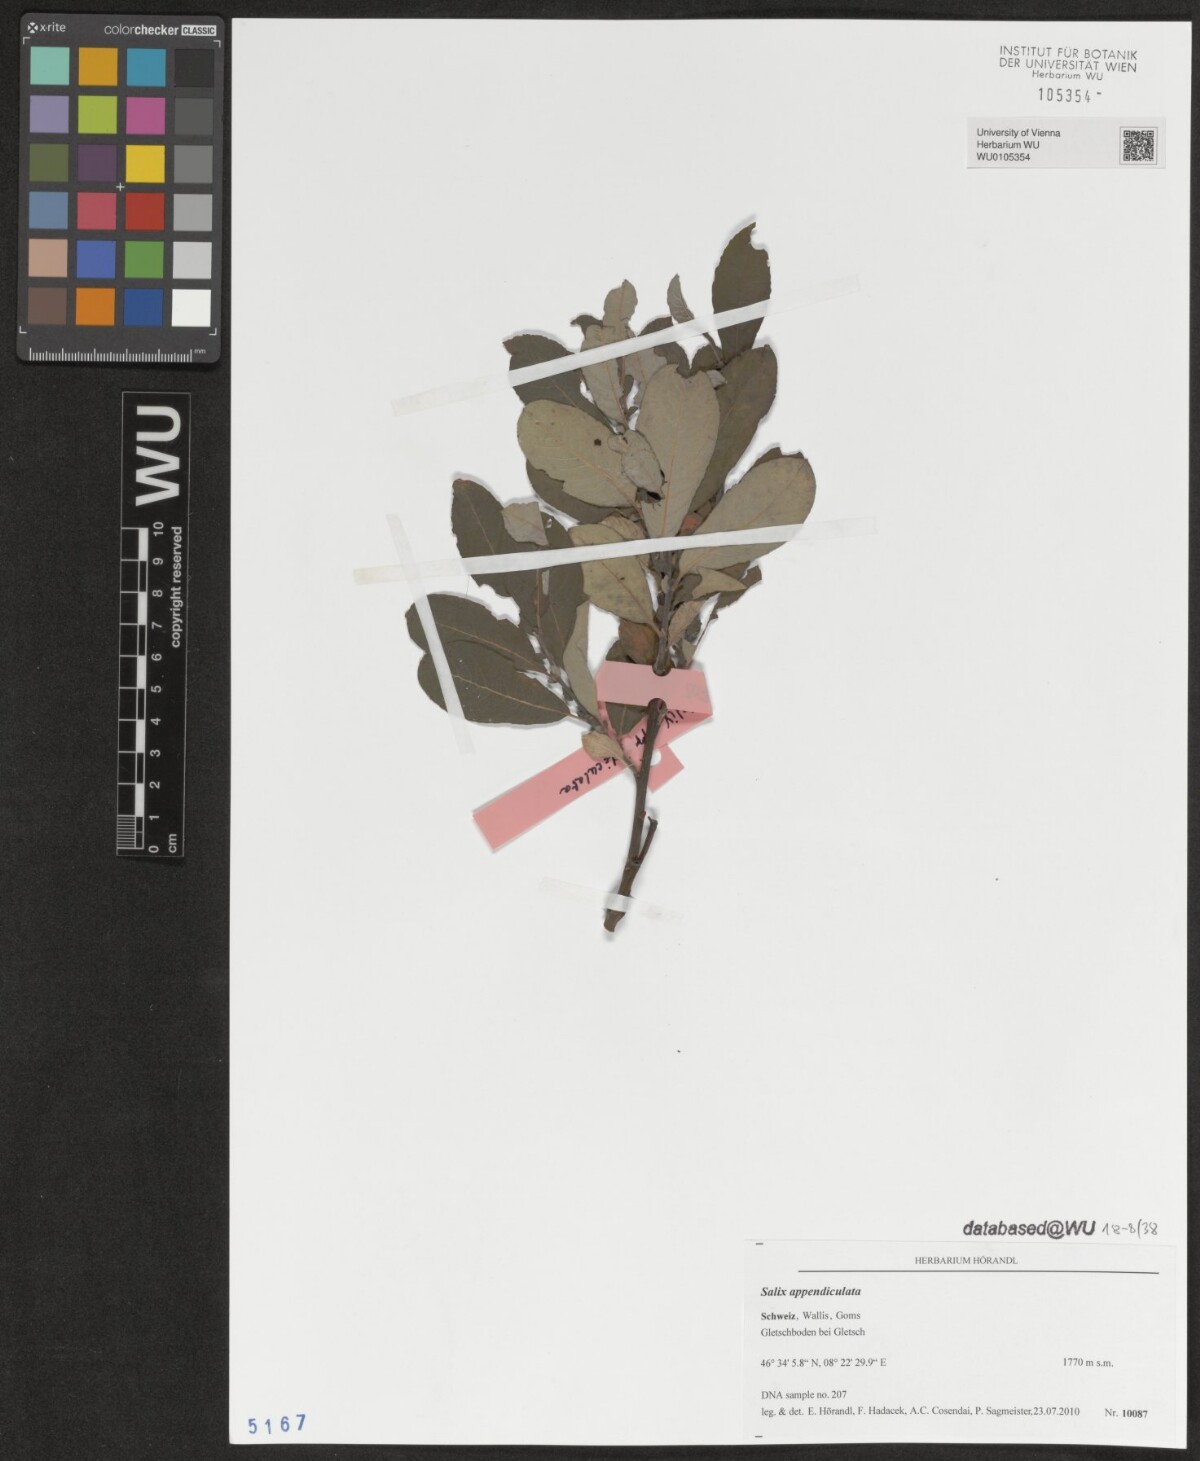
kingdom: Plantae
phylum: Tracheophyta
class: Magnoliopsida
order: Malpighiales
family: Salicaceae
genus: Salix
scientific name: Salix appendiculata
